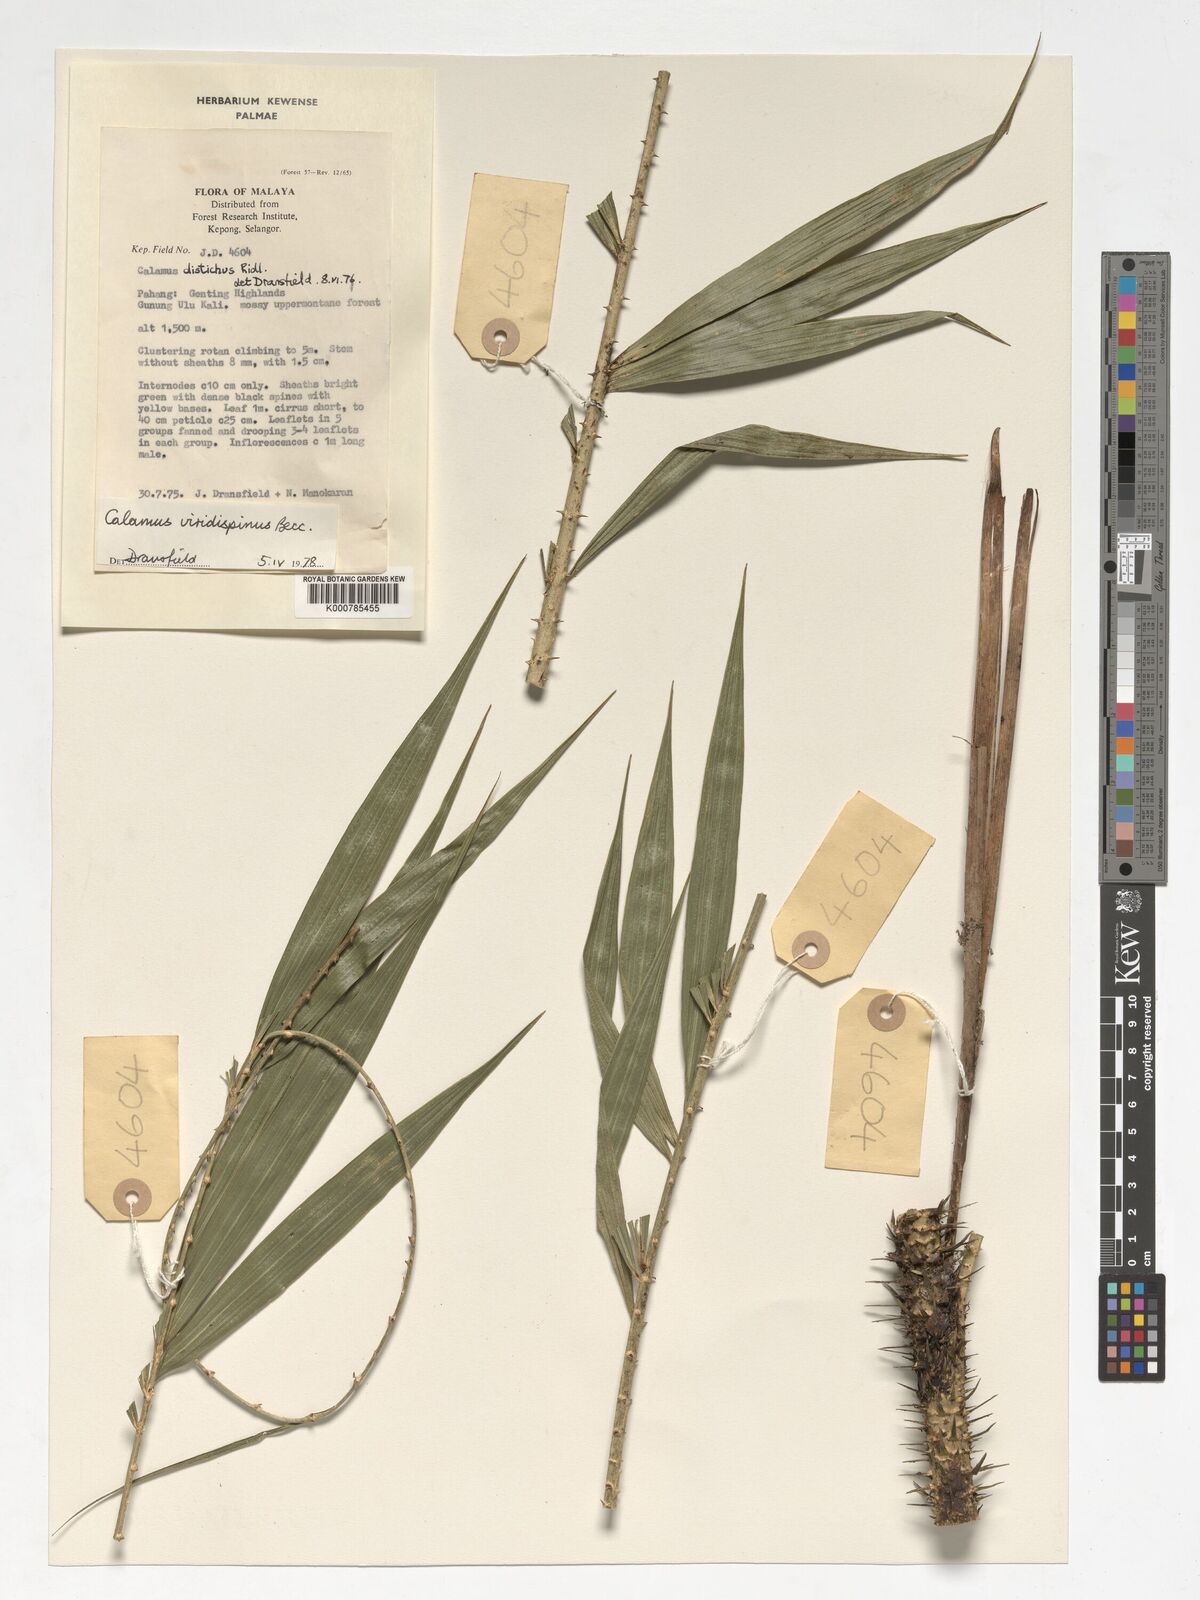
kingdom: Plantae
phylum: Tracheophyta
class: Liliopsida
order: Arecales
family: Arecaceae
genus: Calamus
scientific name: Calamus helferianus
